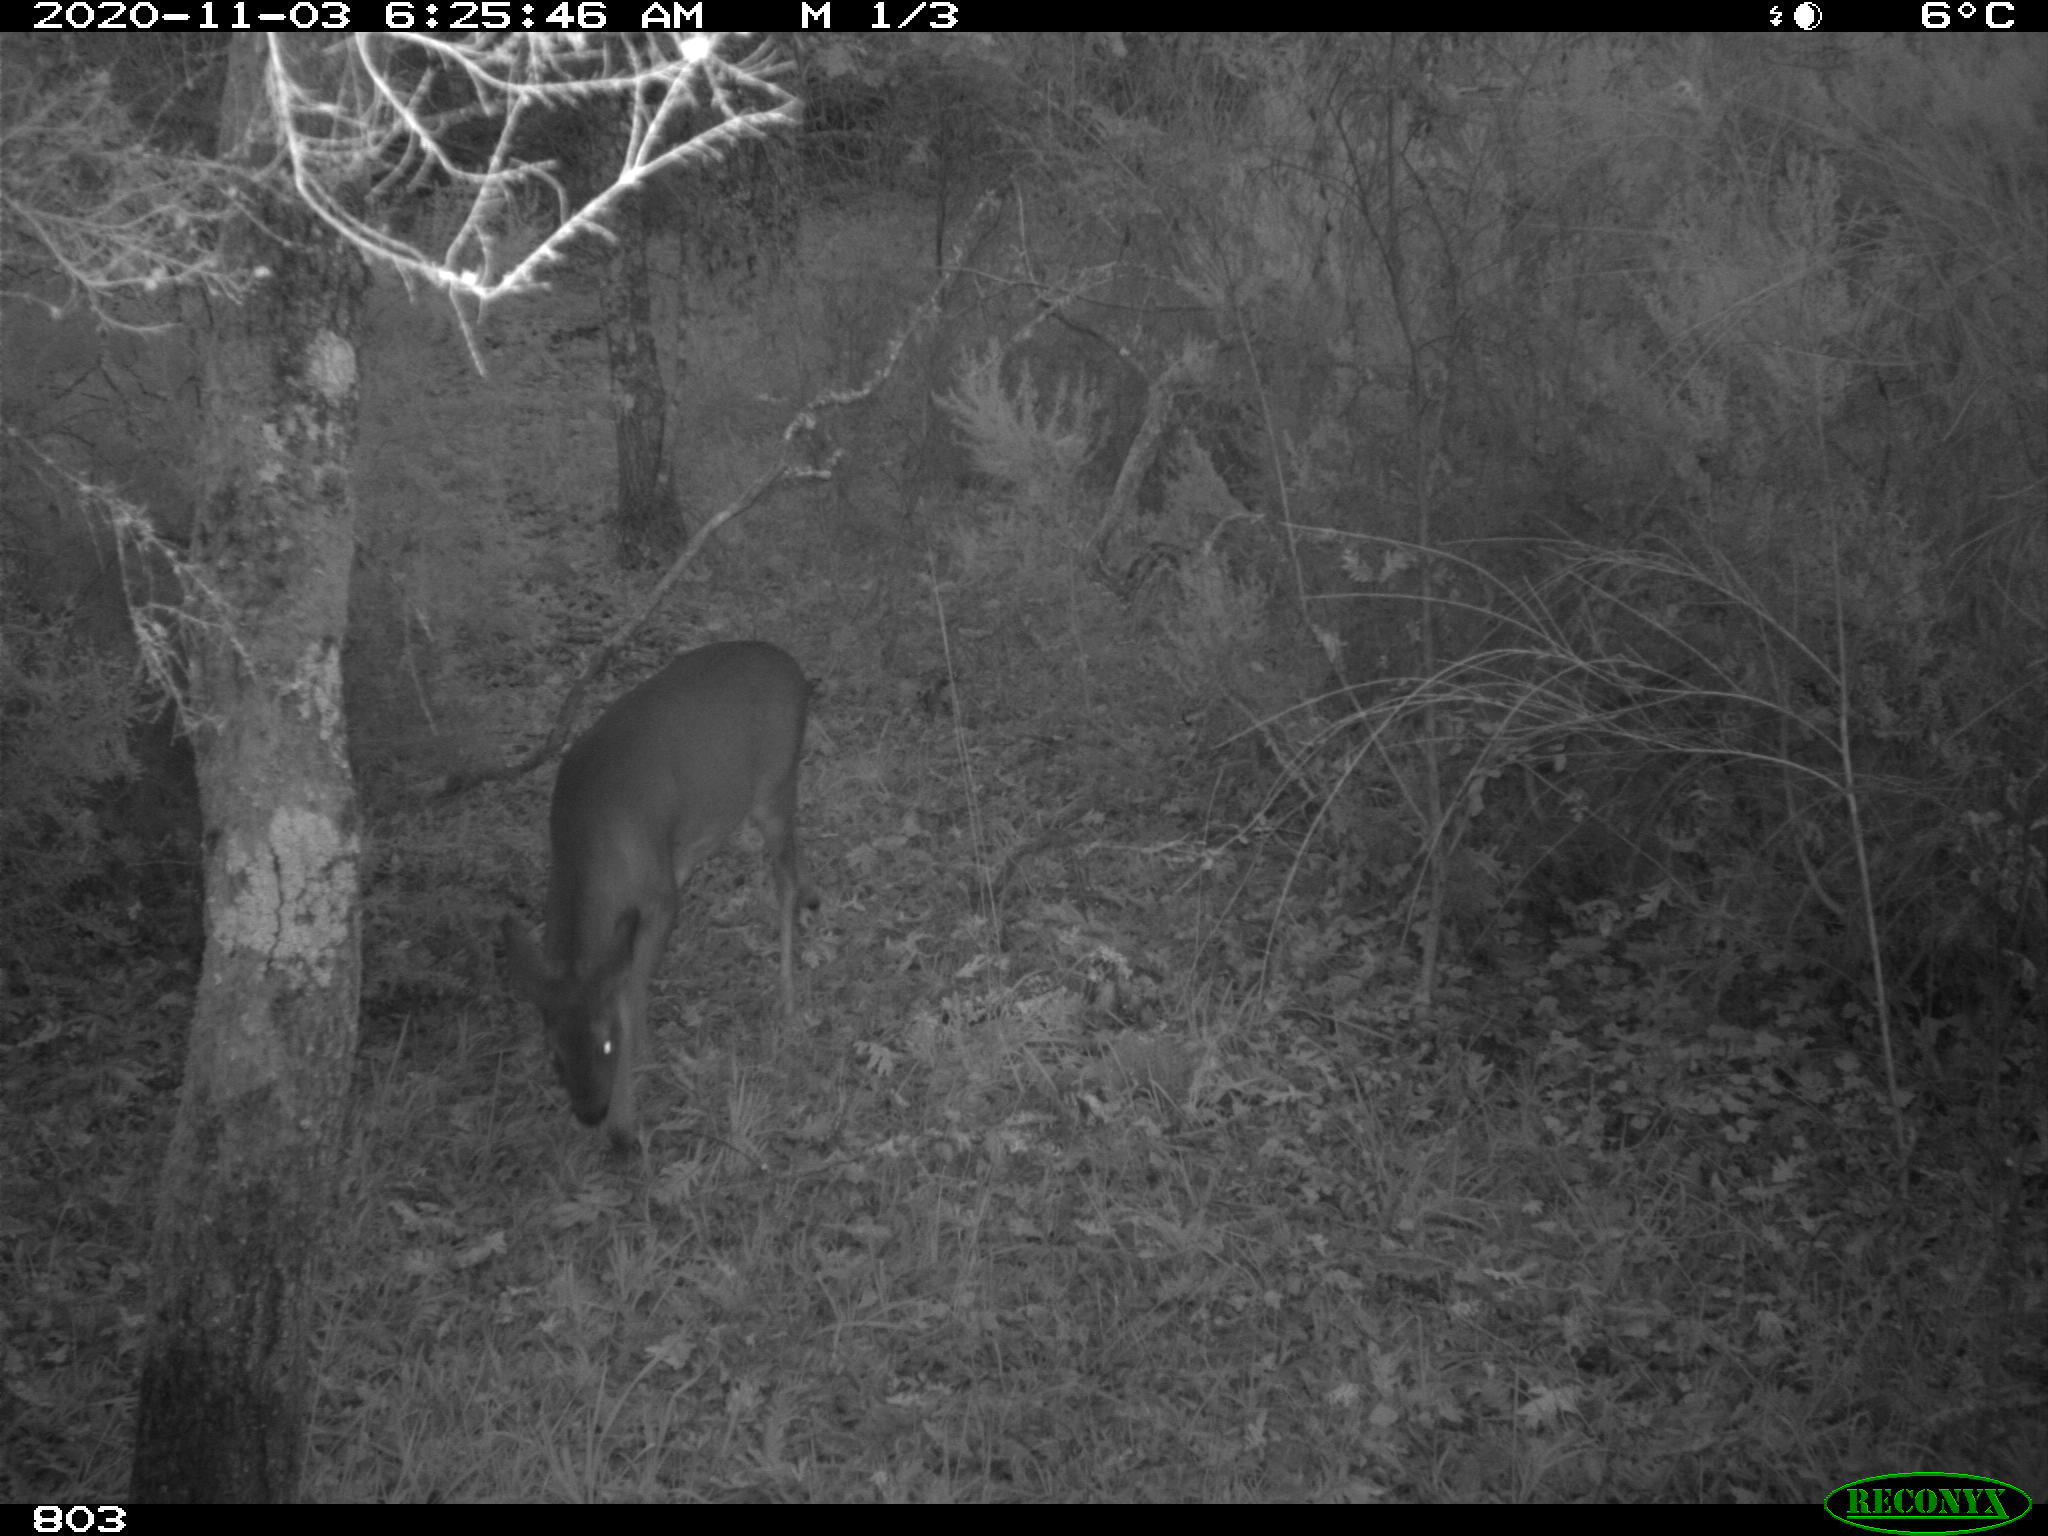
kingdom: Animalia
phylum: Chordata
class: Mammalia
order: Artiodactyla
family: Cervidae
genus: Capreolus
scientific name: Capreolus capreolus
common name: Western roe deer
